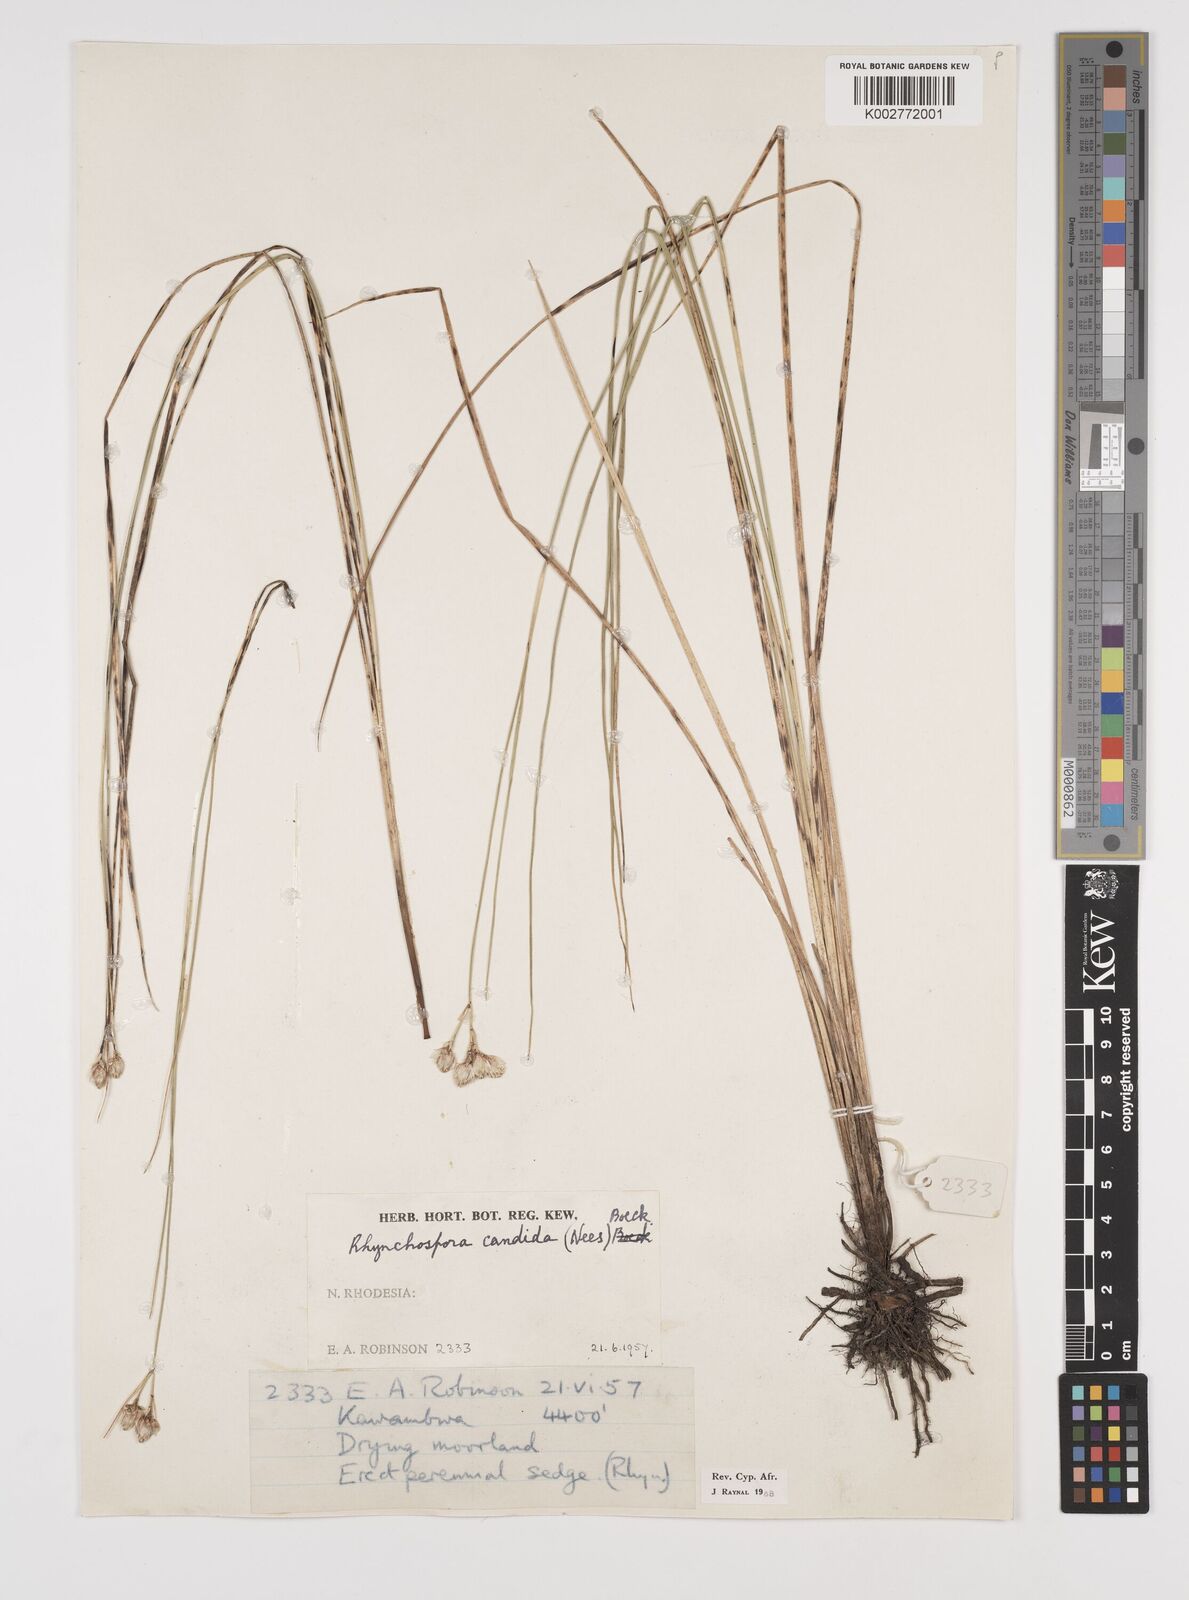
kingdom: Plantae
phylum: Tracheophyta
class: Liliopsida
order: Poales
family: Cyperaceae
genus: Rhynchospora
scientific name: Rhynchospora candida
